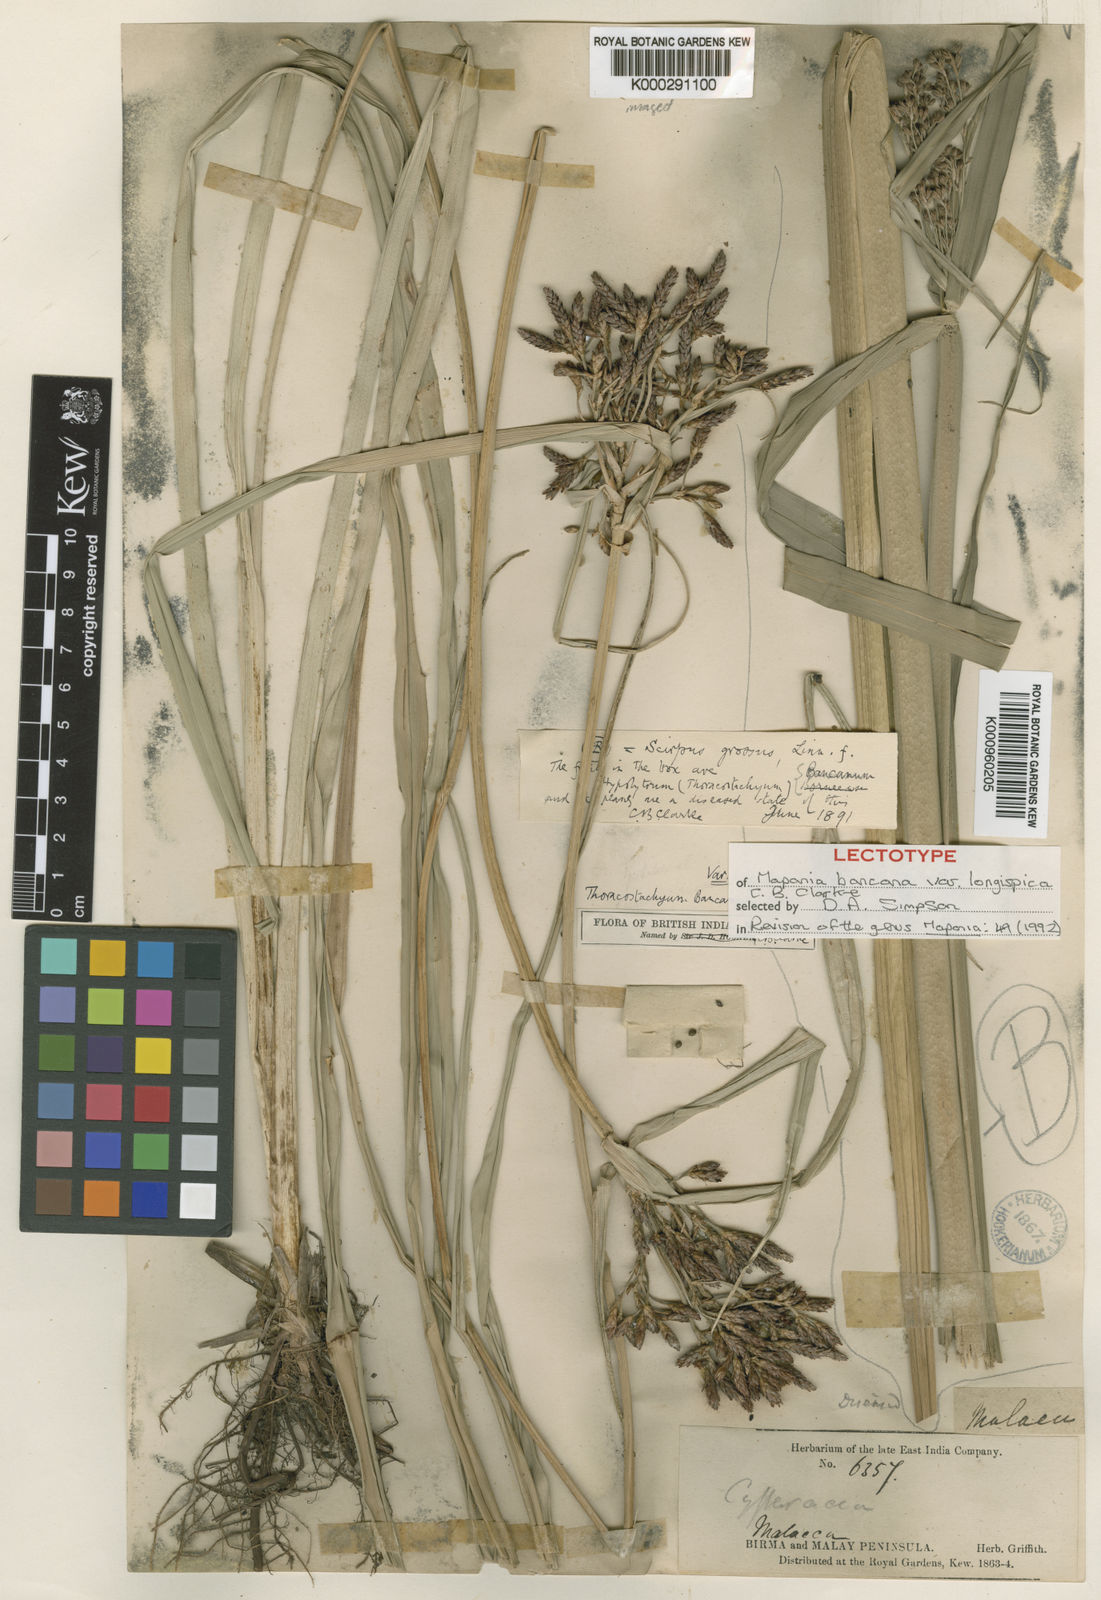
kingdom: Plantae
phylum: Tracheophyta
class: Liliopsida
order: Poales
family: Cyperaceae
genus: Mapania
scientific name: Mapania
